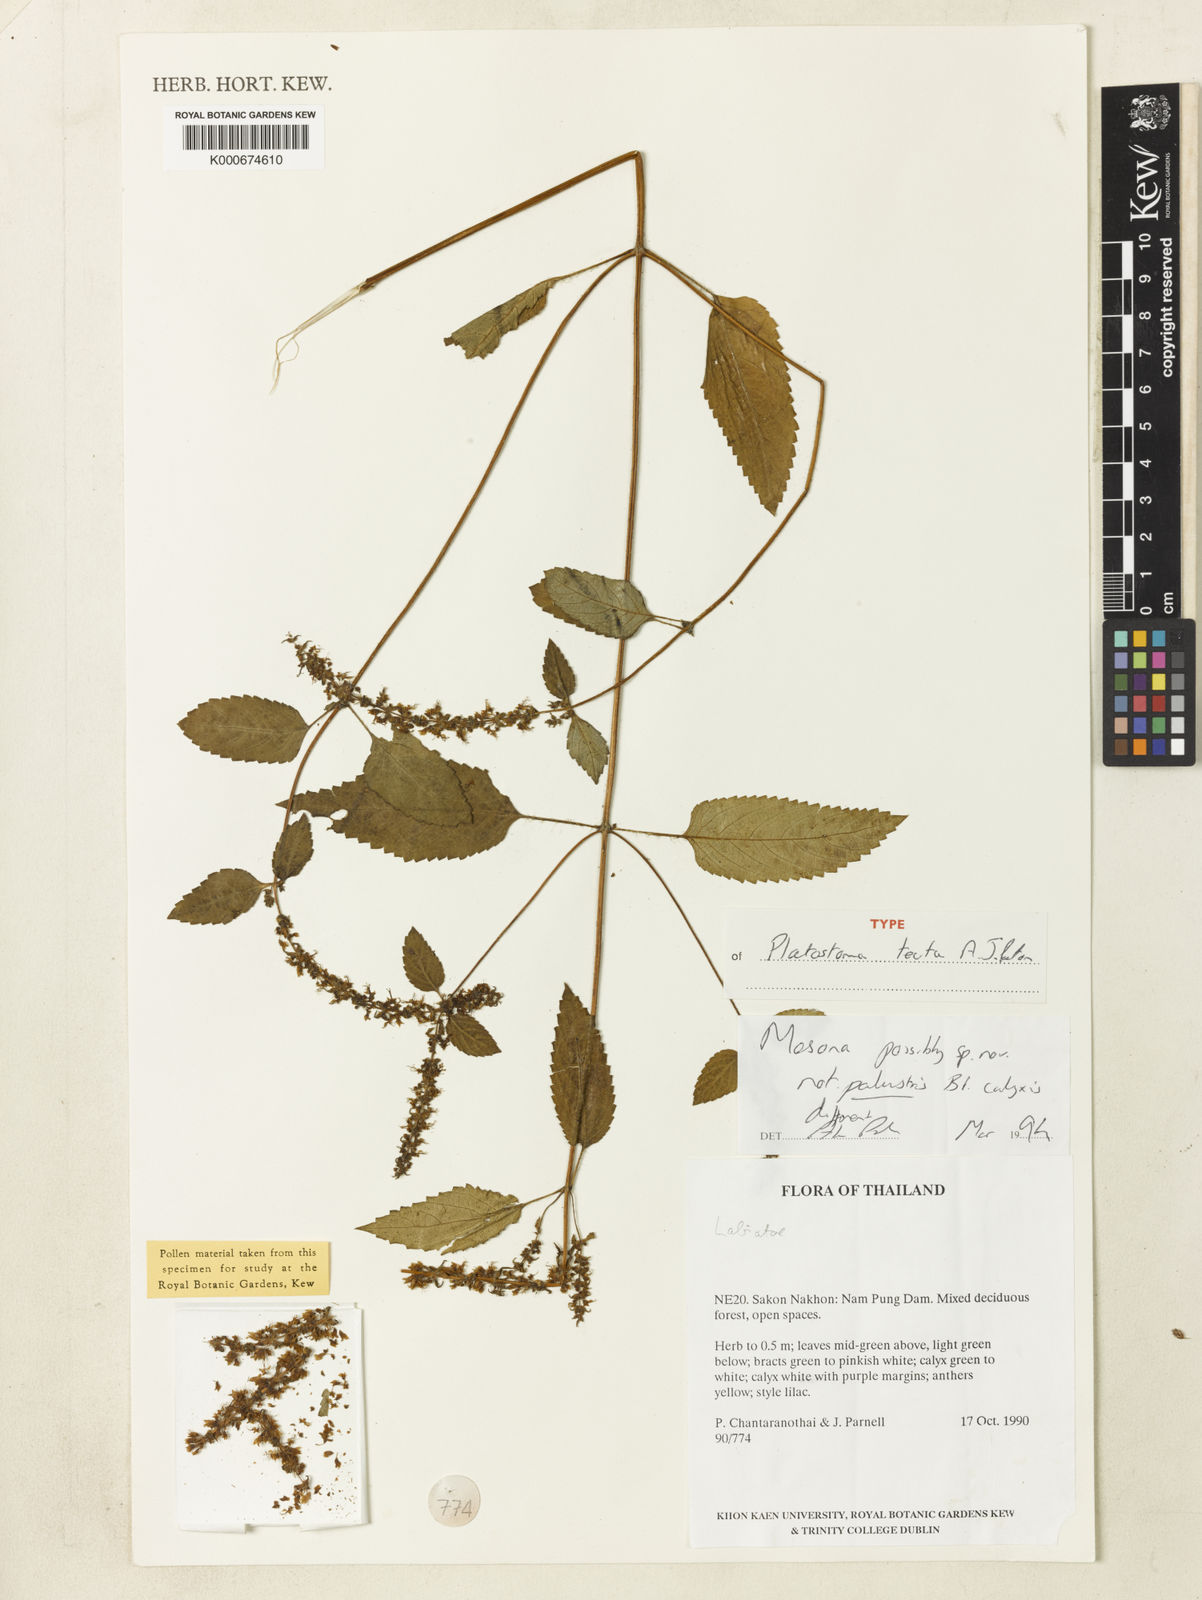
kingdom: Plantae
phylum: Tracheophyta
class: Magnoliopsida
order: Lamiales
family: Lamiaceae
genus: Platostoma
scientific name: Platostoma tectum
